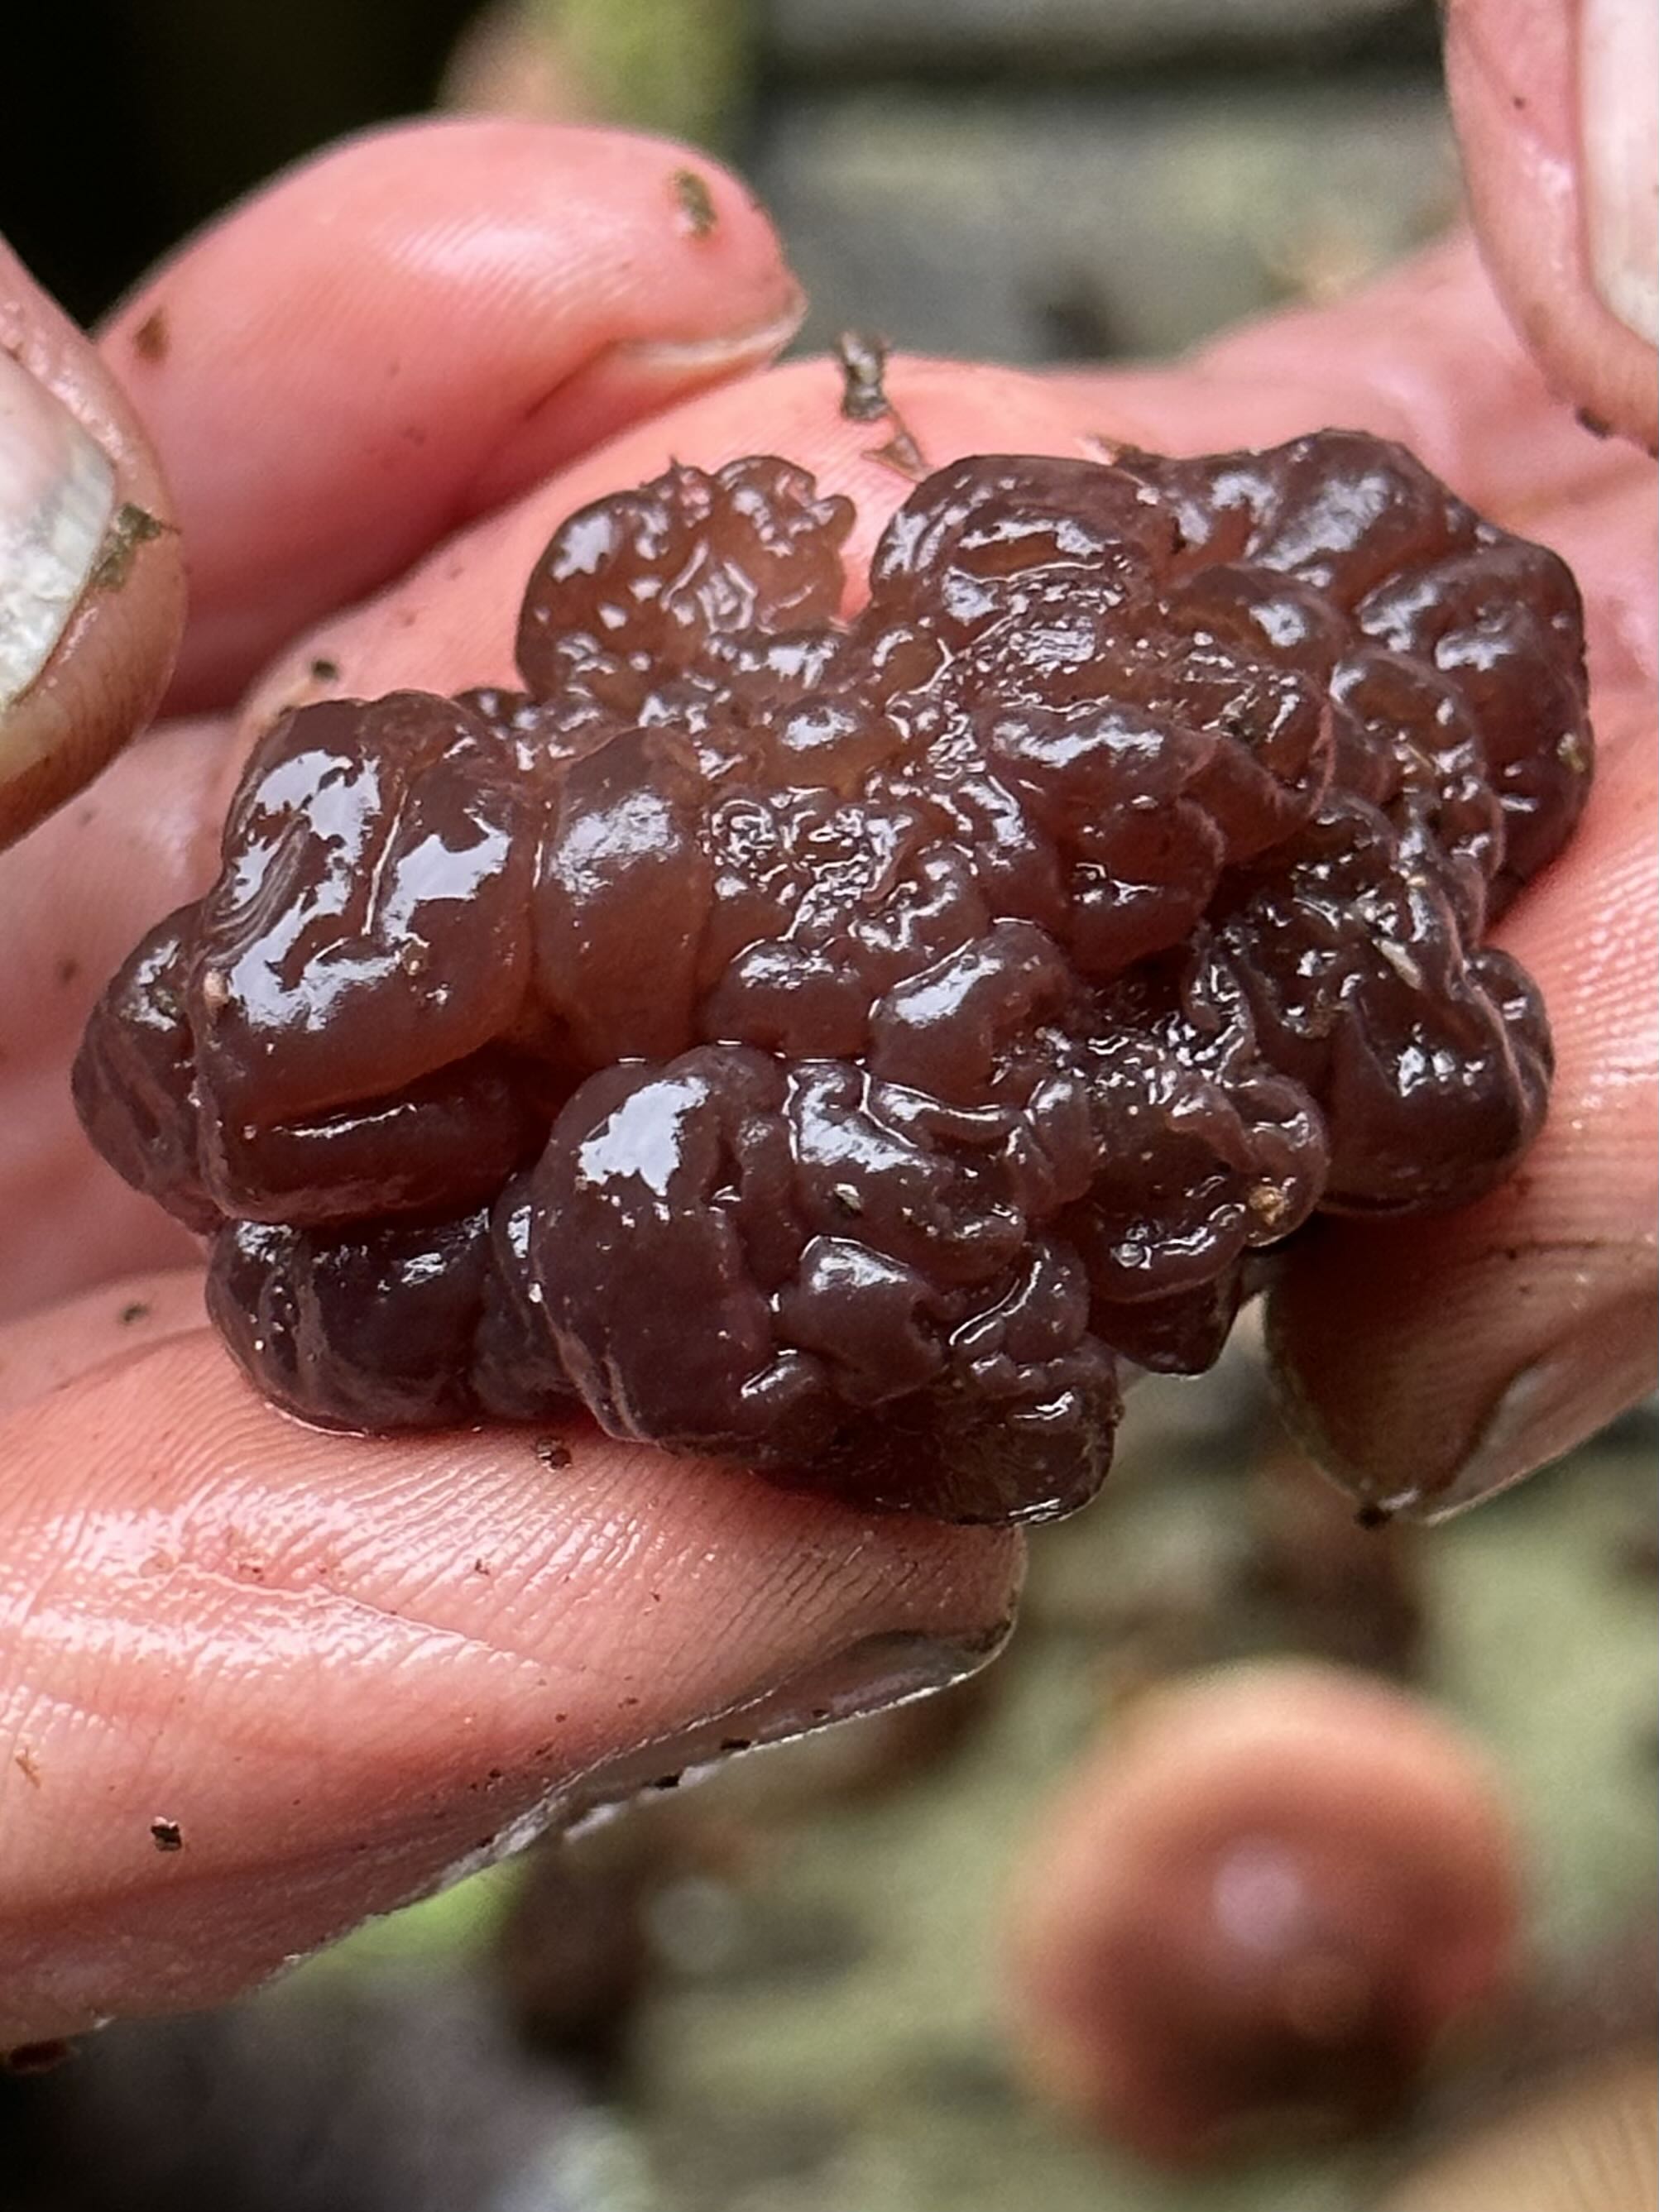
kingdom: Fungi
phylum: Ascomycota
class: Leotiomycetes
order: Helotiales
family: Gelatinodiscaceae
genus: Ascotremella
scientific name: Ascotremella faginea
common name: hjerne-bævreskive
